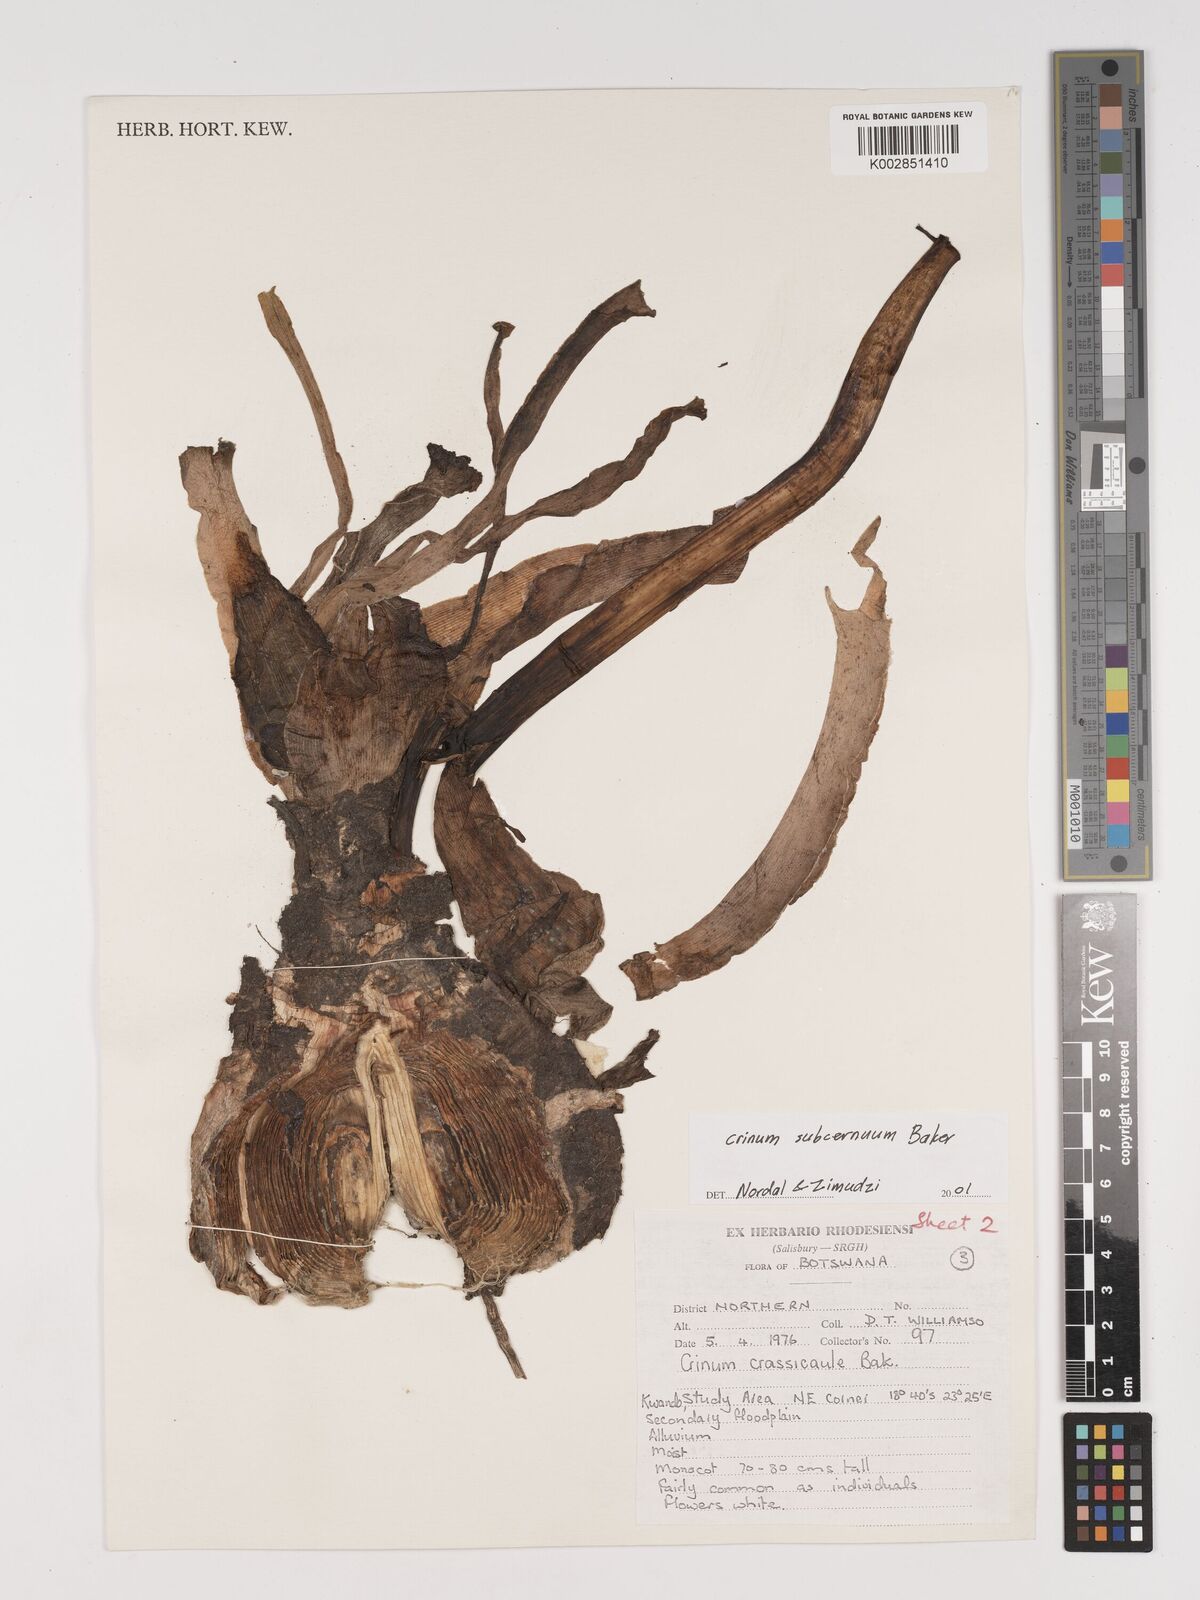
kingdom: Plantae
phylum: Tracheophyta
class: Liliopsida
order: Asparagales
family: Amaryllidaceae
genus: Crinum
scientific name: Crinum subcernuum
